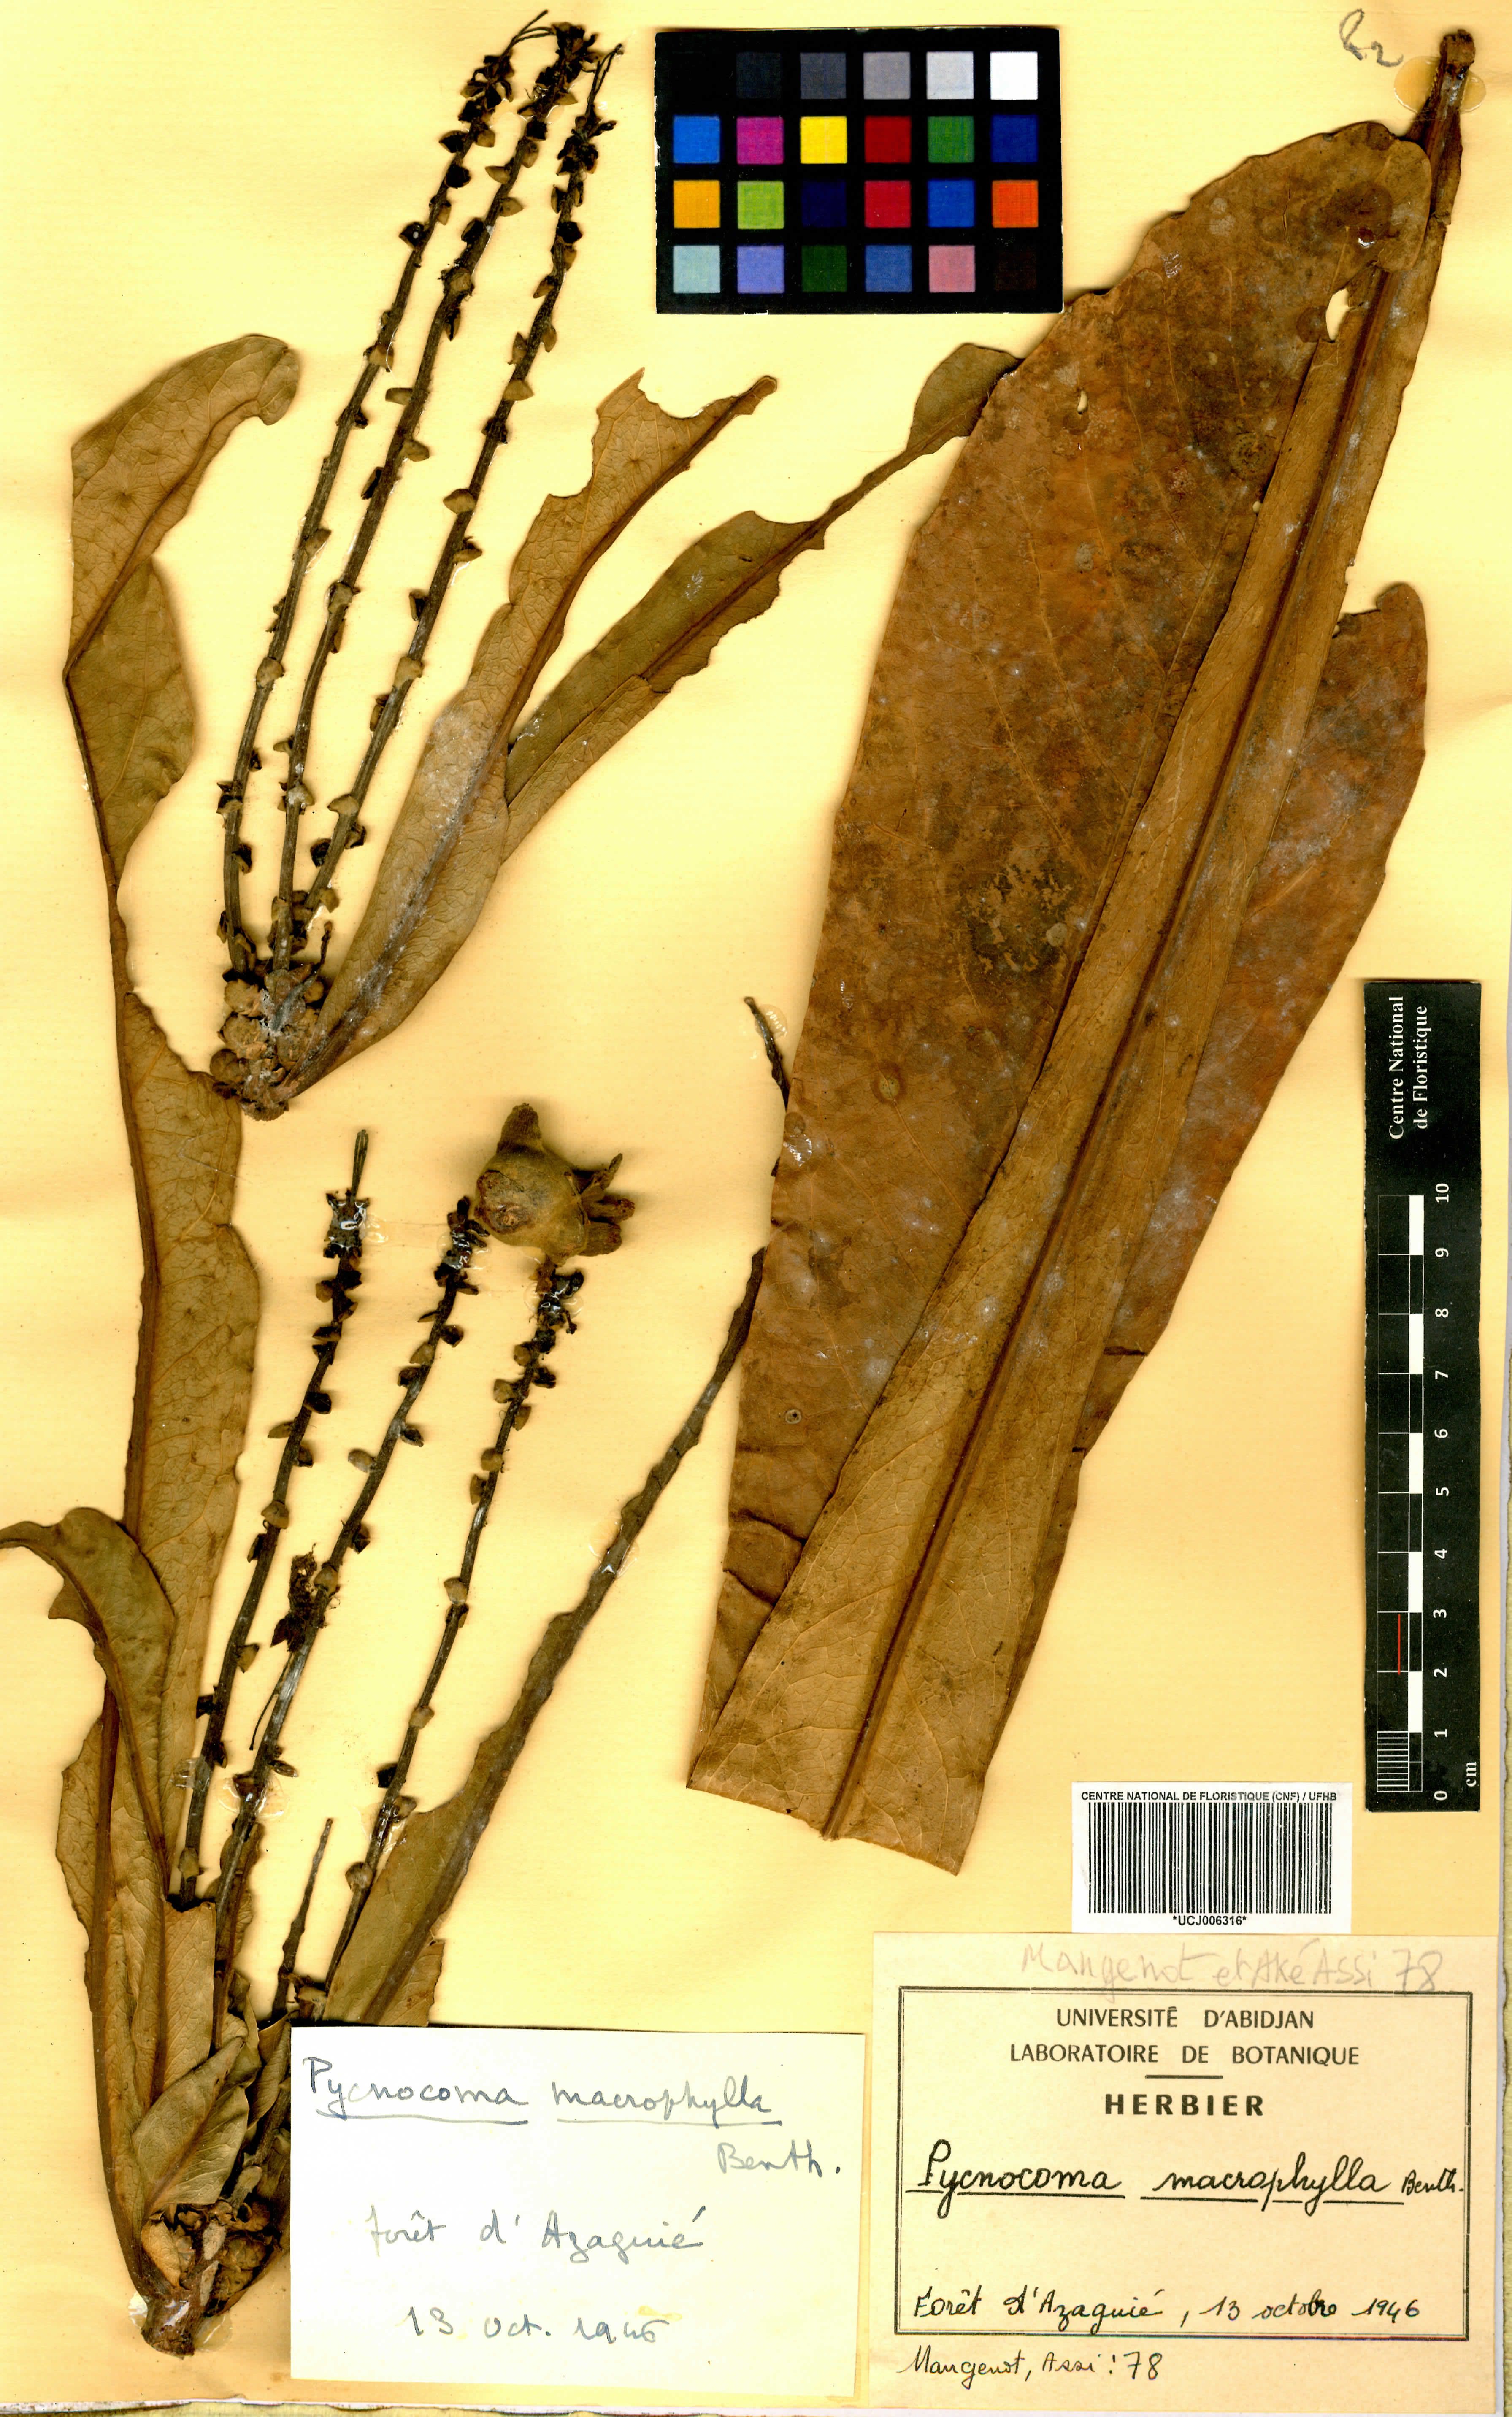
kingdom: Plantae
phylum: Tracheophyta
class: Magnoliopsida
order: Malpighiales
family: Euphorbiaceae
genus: Pycnocoma
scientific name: Pycnocoma macrophylla
